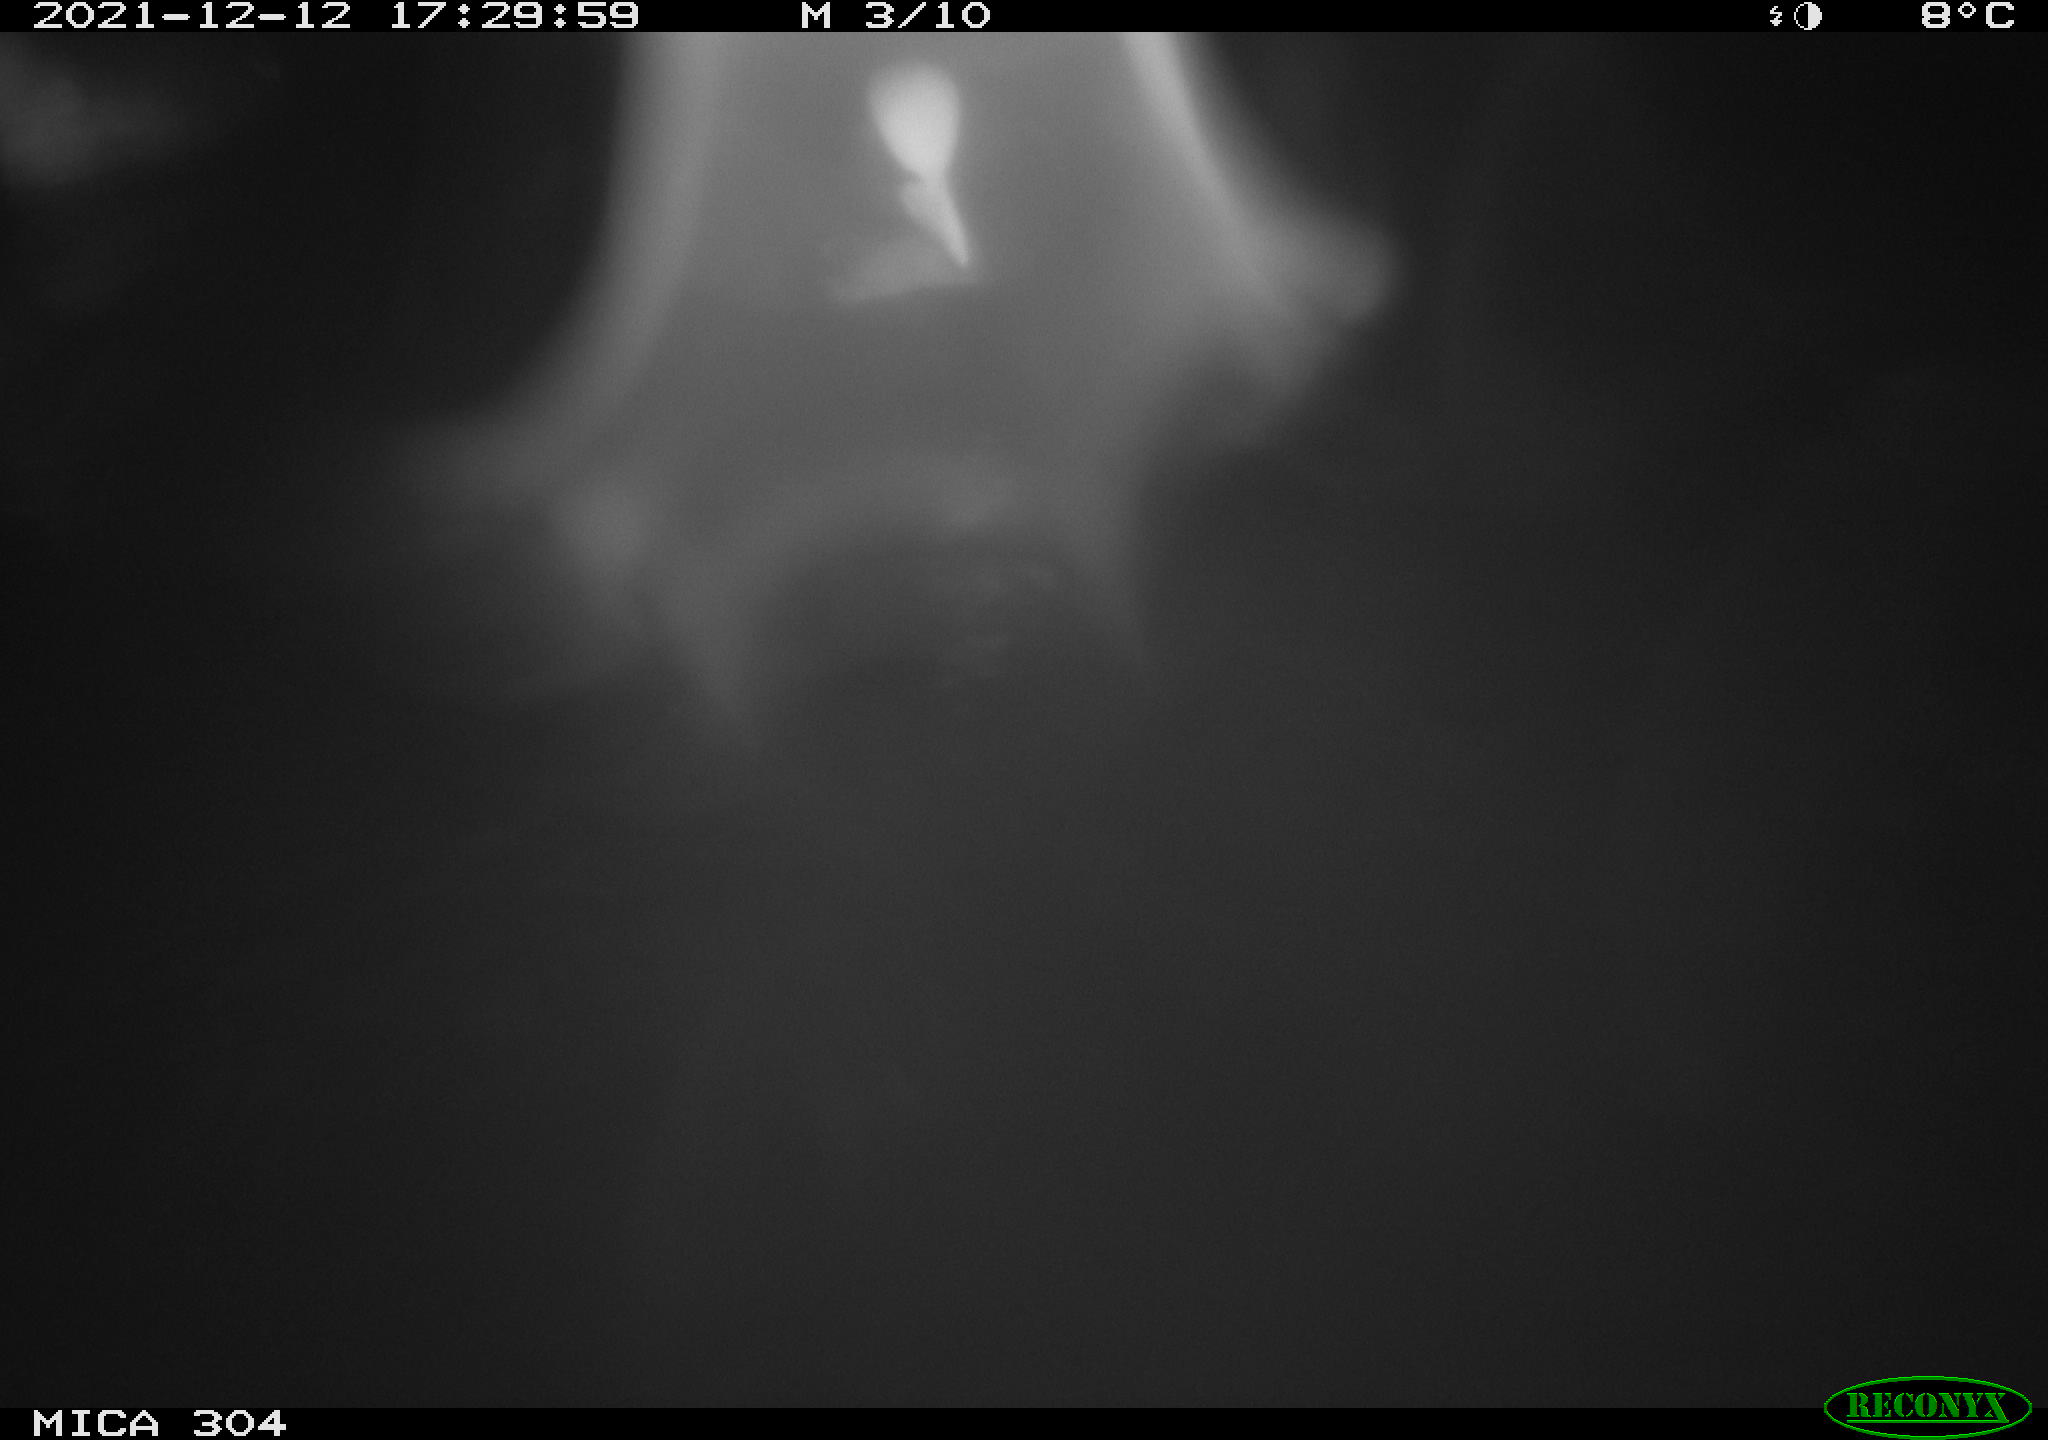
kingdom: Animalia
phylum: Chordata
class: Aves
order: Gruiformes
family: Rallidae
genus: Fulica
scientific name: Fulica atra
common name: Eurasian coot
